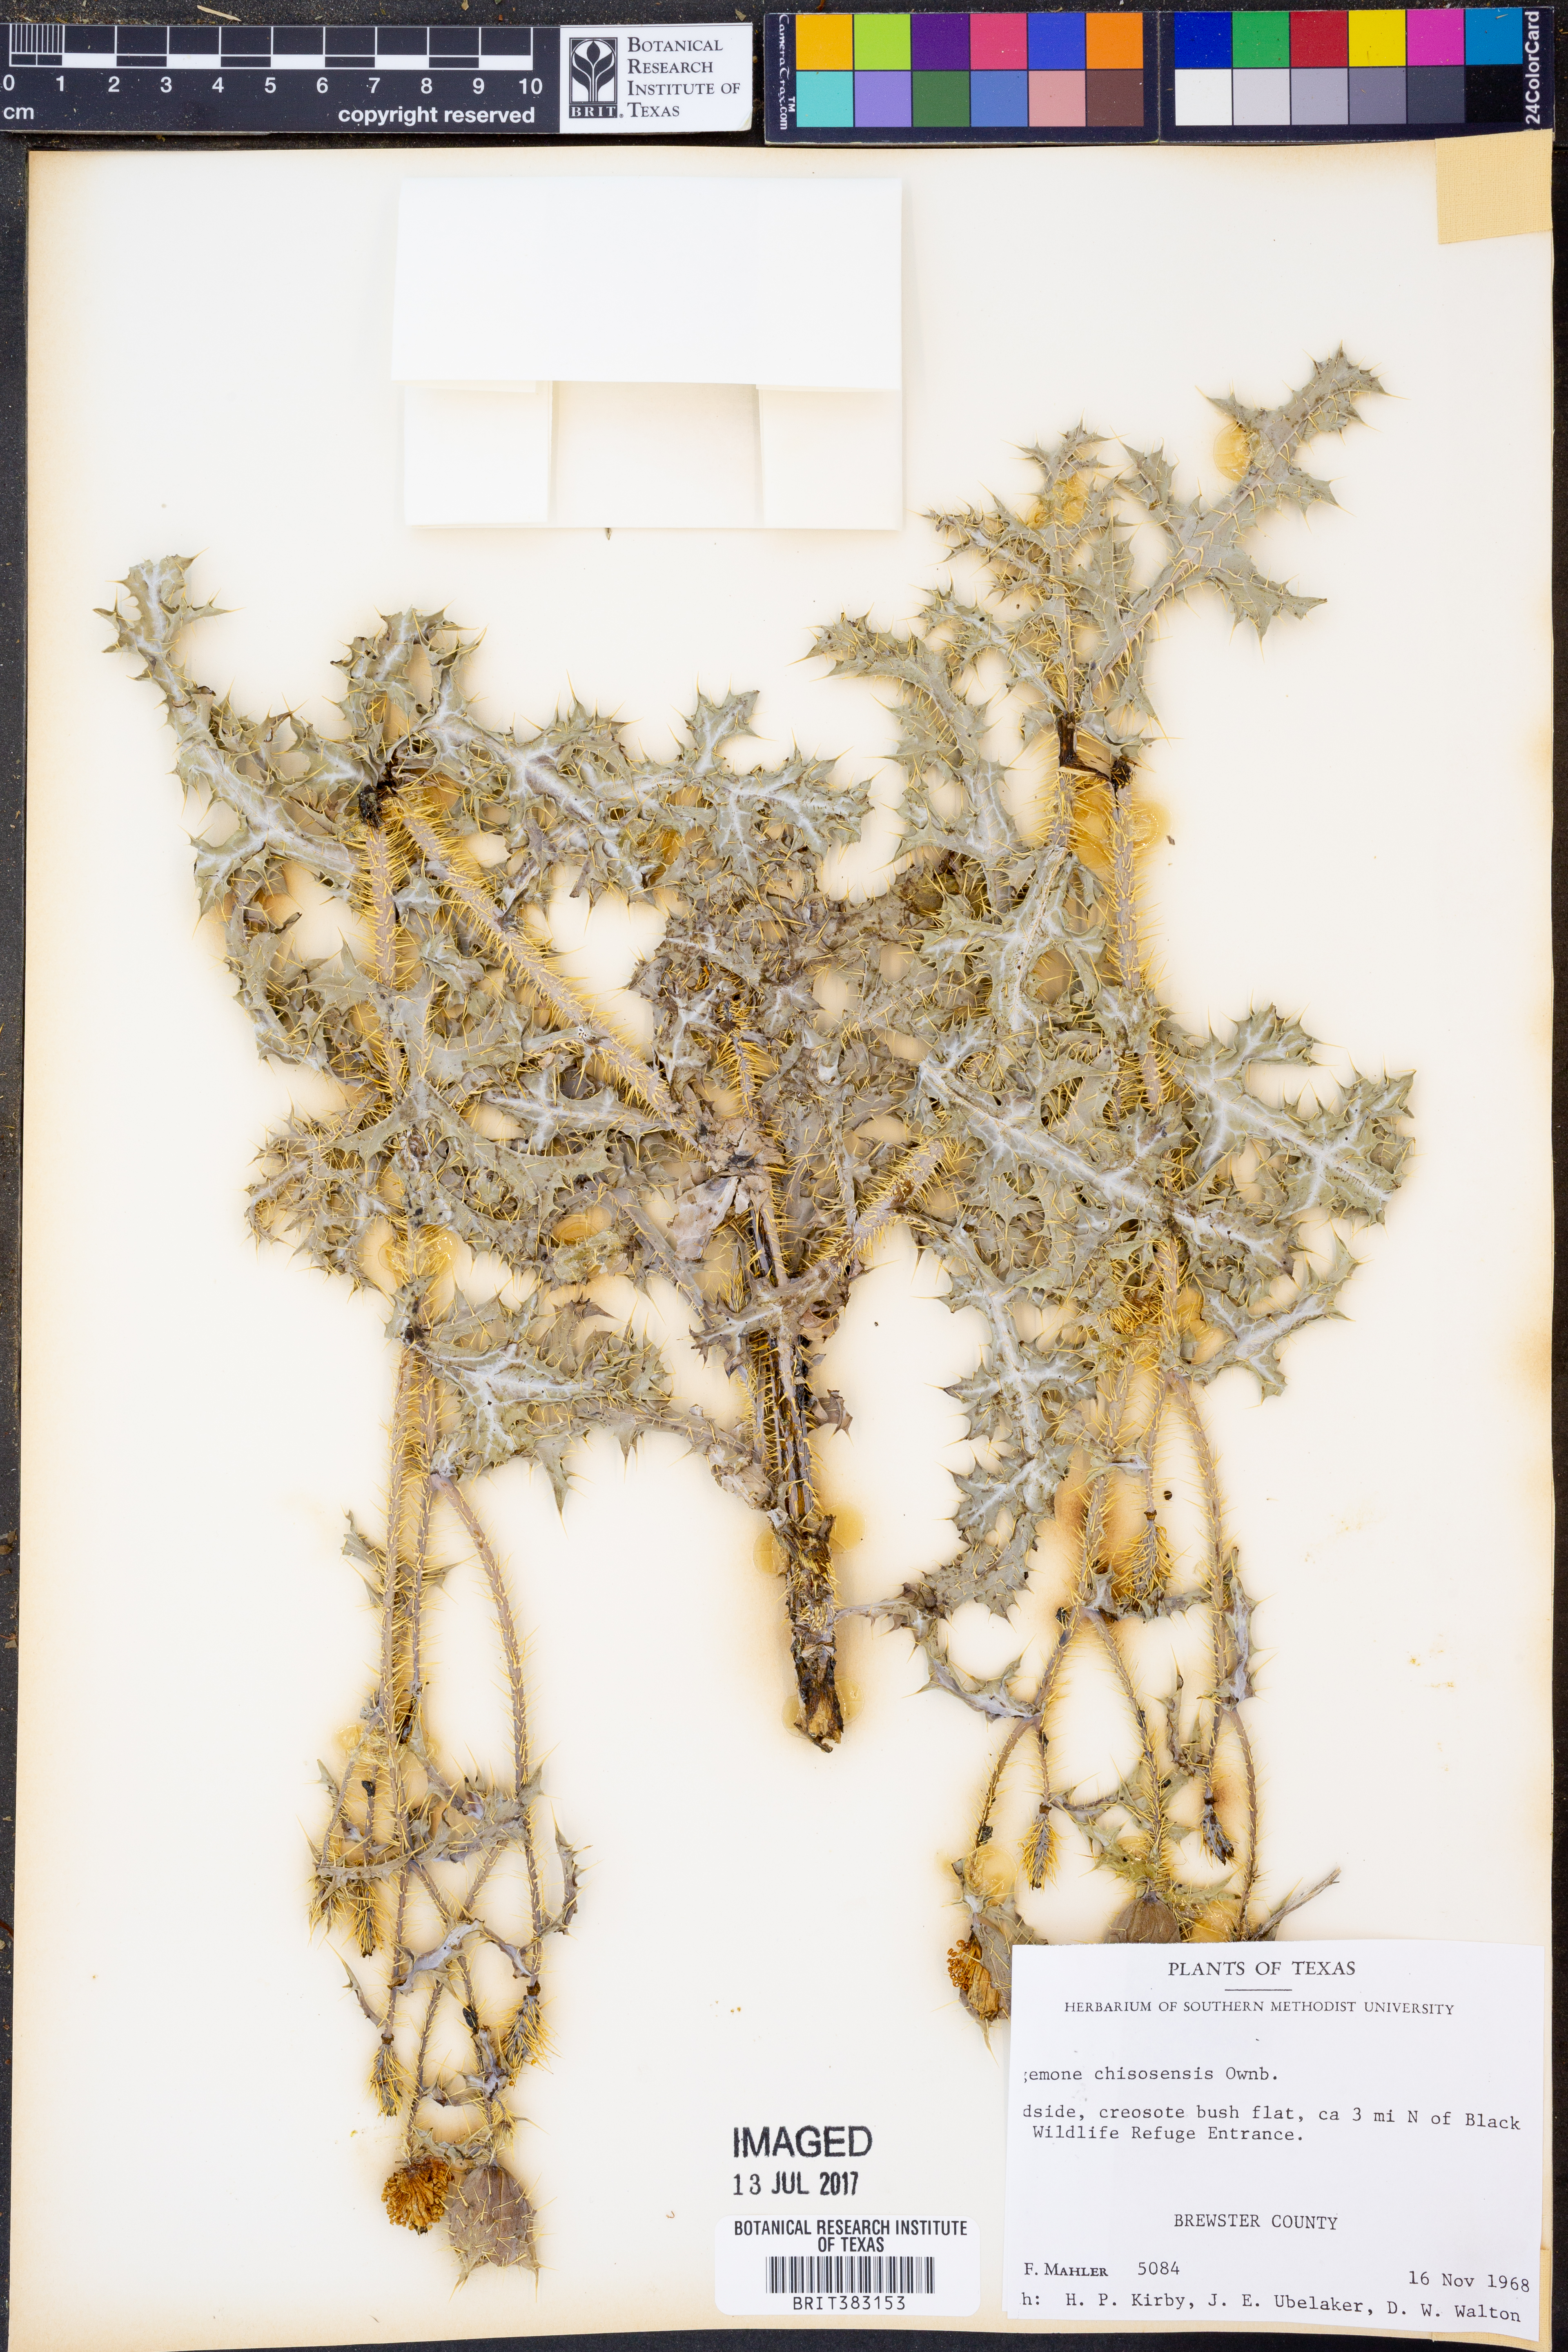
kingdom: Plantae
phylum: Tracheophyta
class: Magnoliopsida
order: Ranunculales
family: Papaveraceae
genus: Argemone
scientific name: Argemone chisosensis
